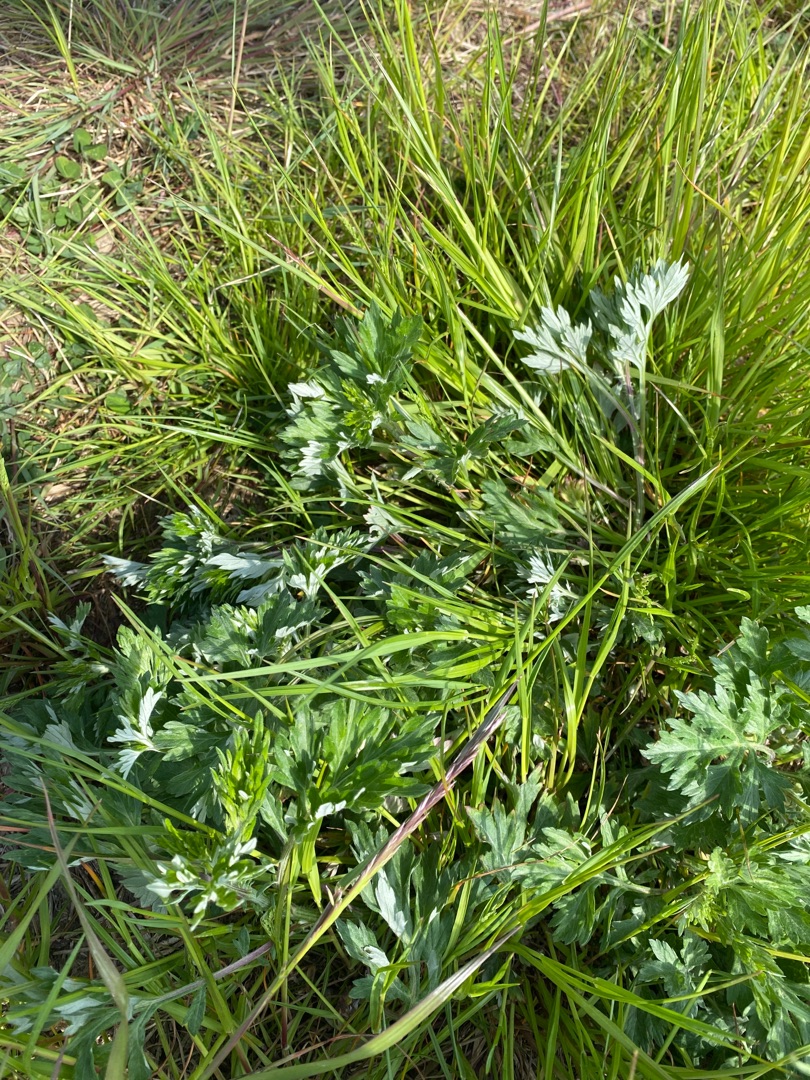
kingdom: Plantae
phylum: Tracheophyta
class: Magnoliopsida
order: Asterales
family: Asteraceae
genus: Artemisia
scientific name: Artemisia vulgaris
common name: Grå-bynke
